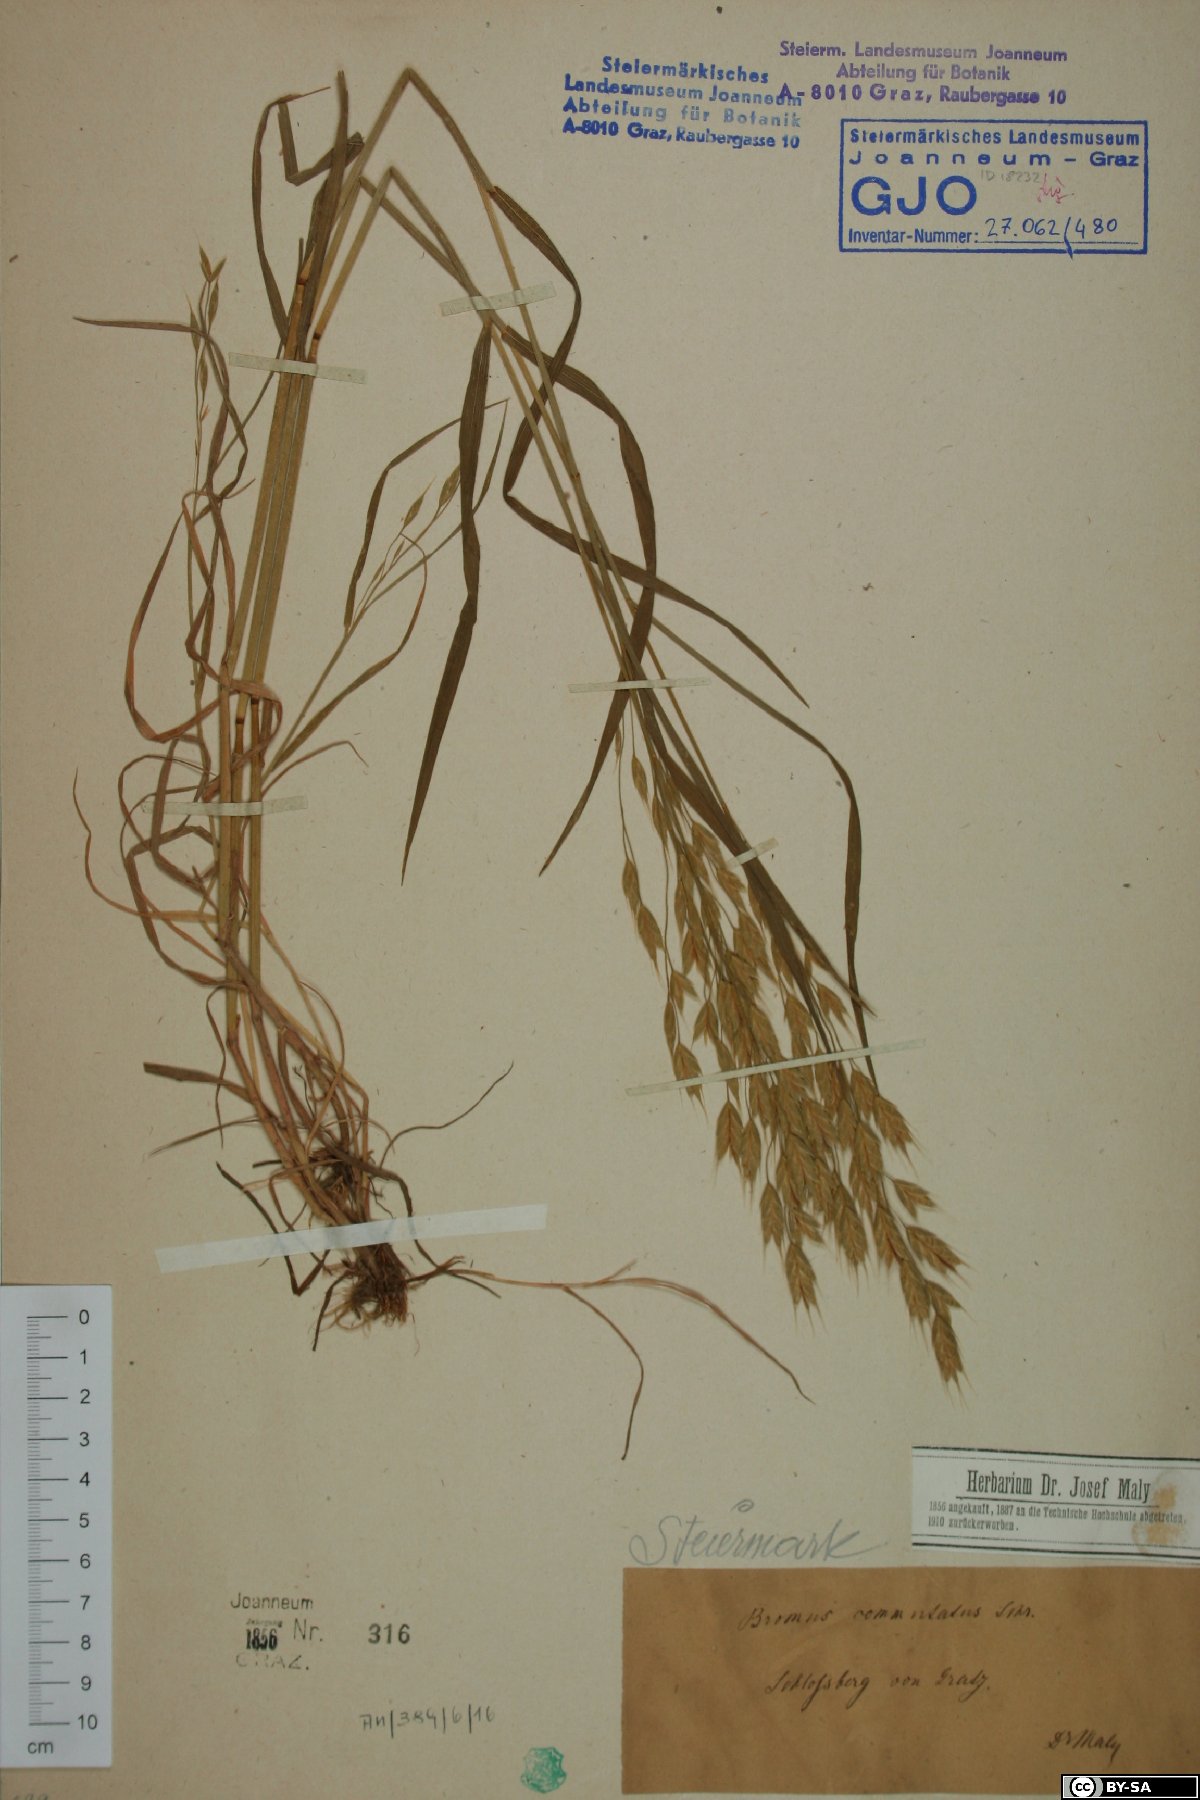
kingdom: Plantae
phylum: Tracheophyta
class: Liliopsida
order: Poales
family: Poaceae
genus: Bromus
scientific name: Bromus commutatus
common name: Meadow brome
